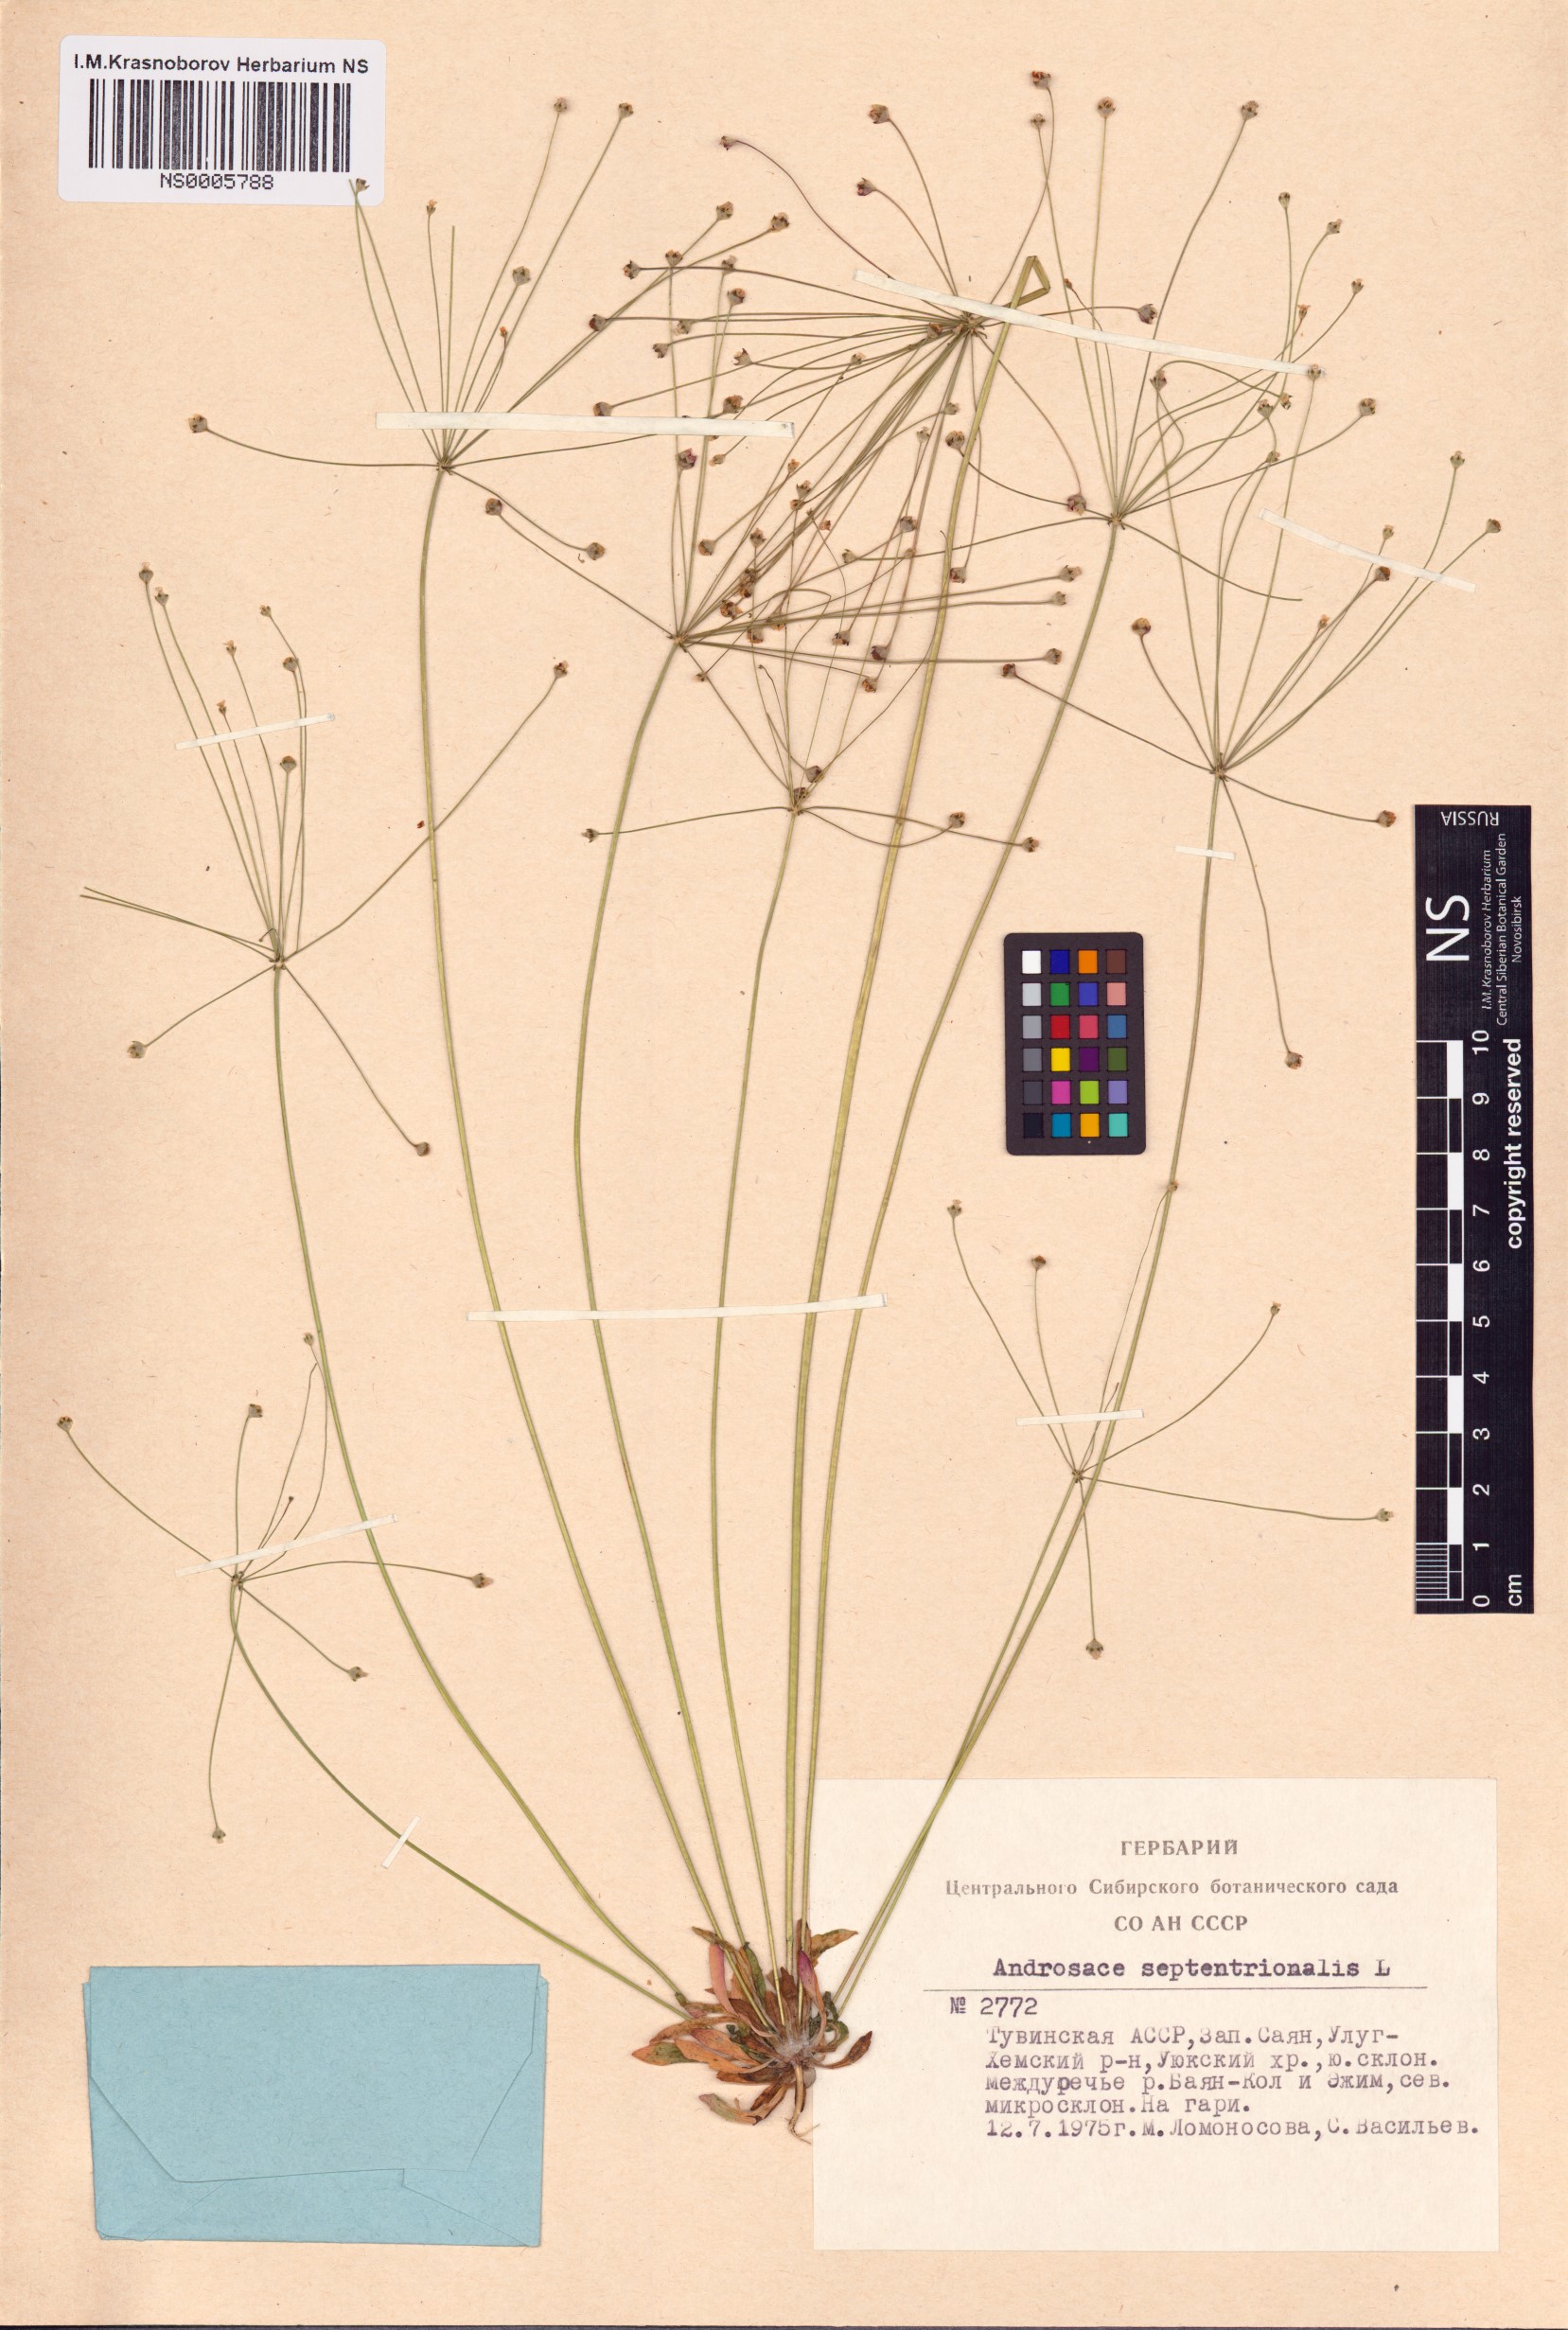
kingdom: Plantae
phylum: Tracheophyta
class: Magnoliopsida
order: Ericales
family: Primulaceae
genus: Androsace
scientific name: Androsace septentrionalis
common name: Hairy northern fairy-candelabra
